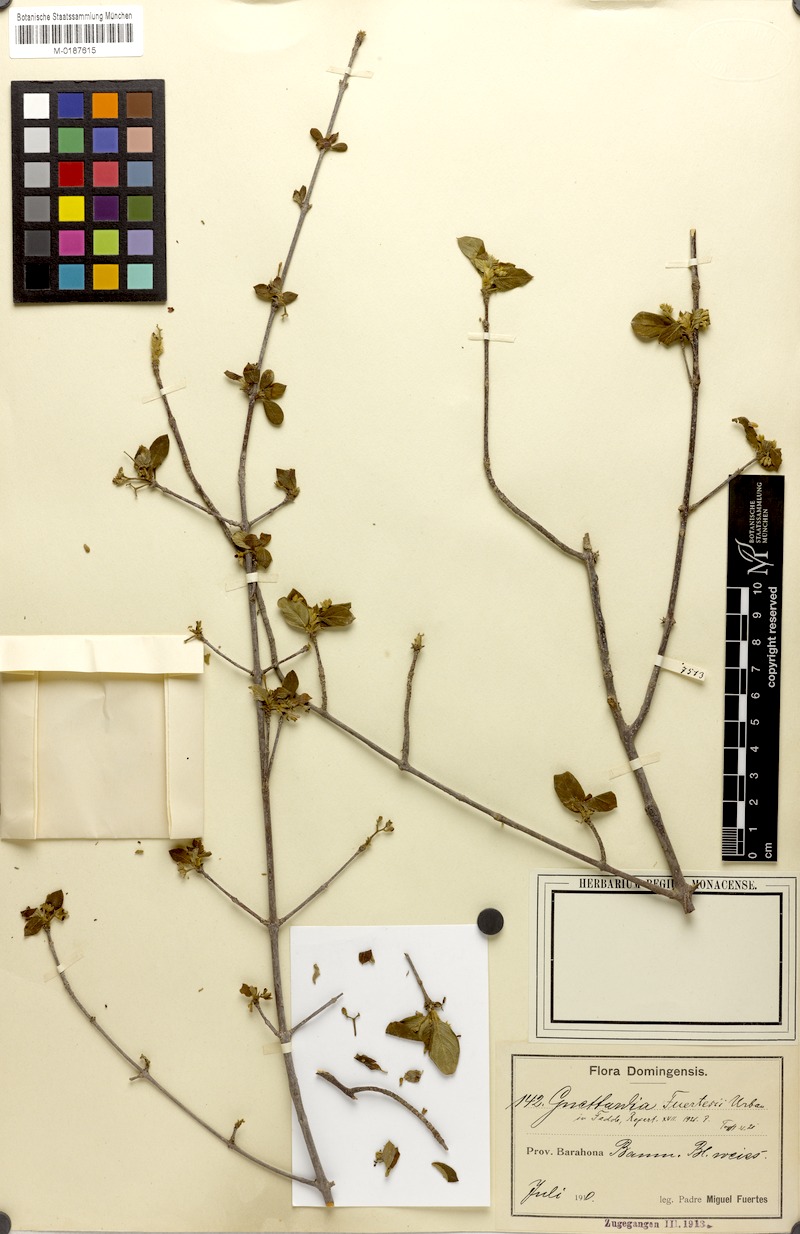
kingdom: Plantae
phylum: Tracheophyta
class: Magnoliopsida
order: Gentianales
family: Rubiaceae
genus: Guettarda
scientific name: Guettarda elliptica
